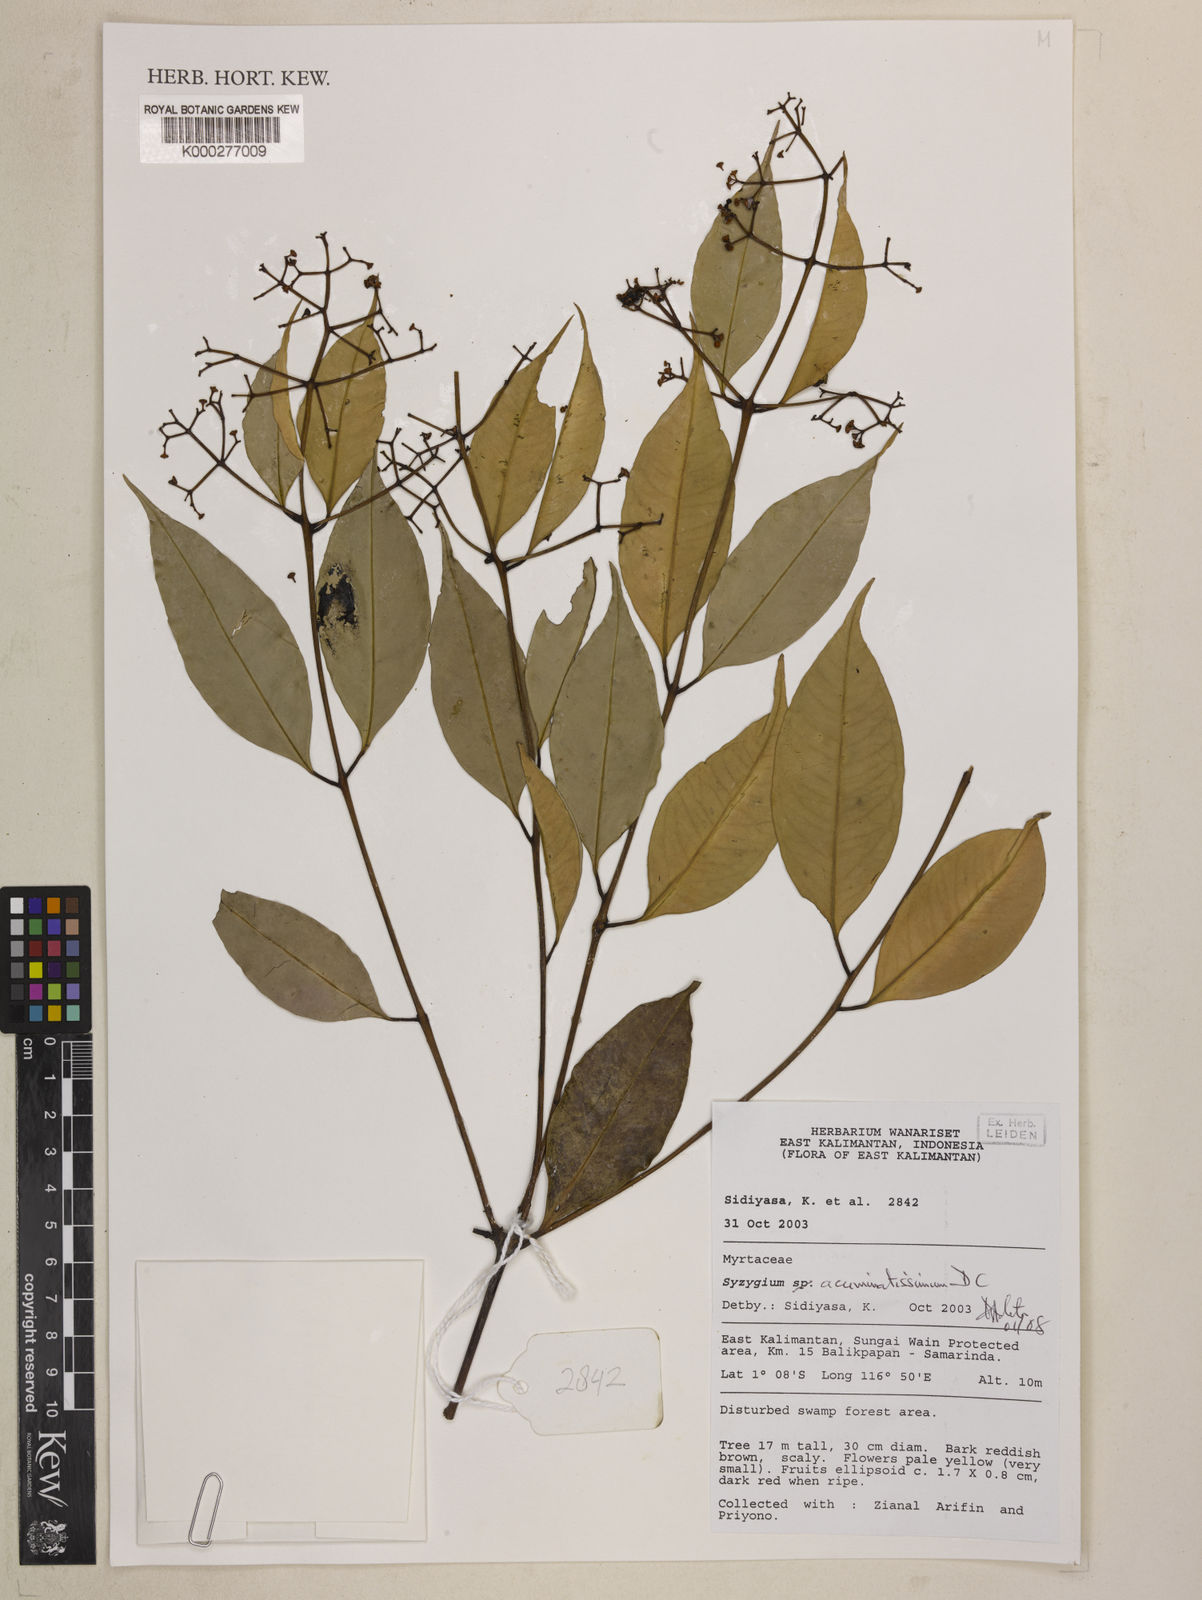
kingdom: Plantae
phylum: Tracheophyta
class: Magnoliopsida
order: Myrtales
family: Myrtaceae
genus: Syzygium
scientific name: Syzygium acuminatissimum
